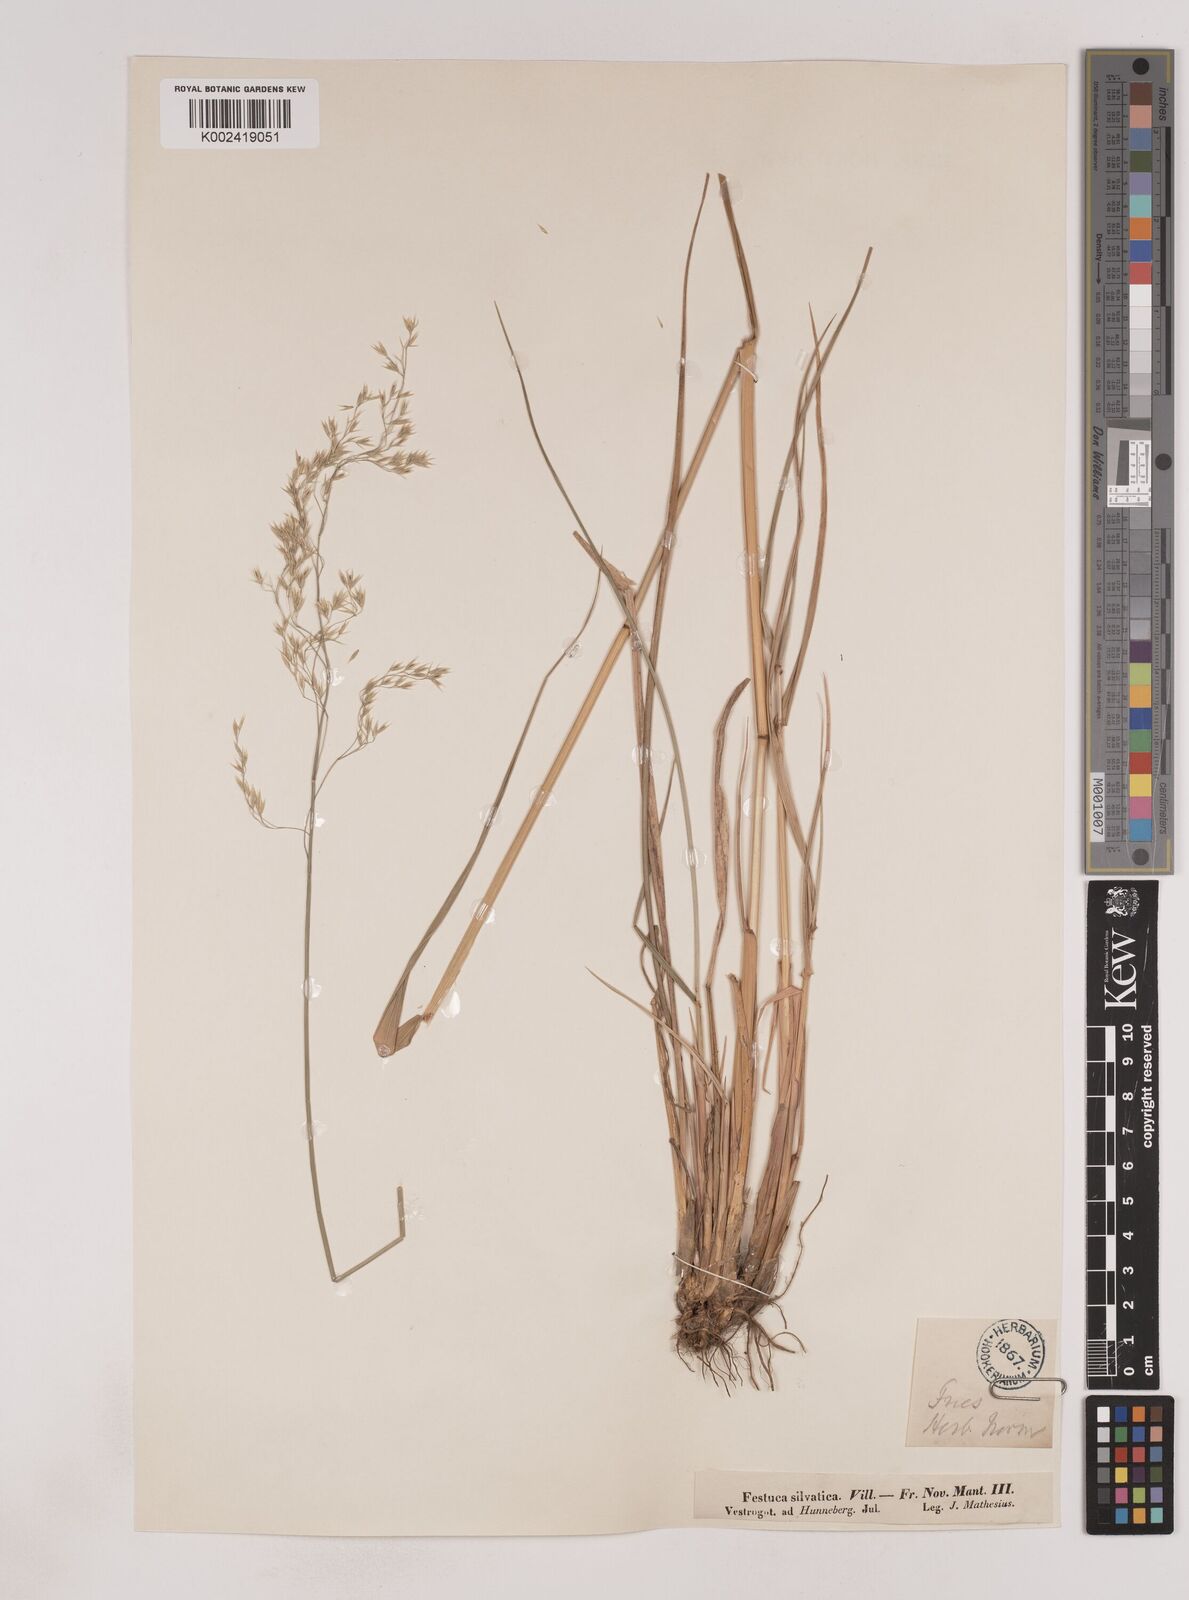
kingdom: Plantae
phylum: Tracheophyta
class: Liliopsida
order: Poales
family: Poaceae
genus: Festuca
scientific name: Festuca drymeja
